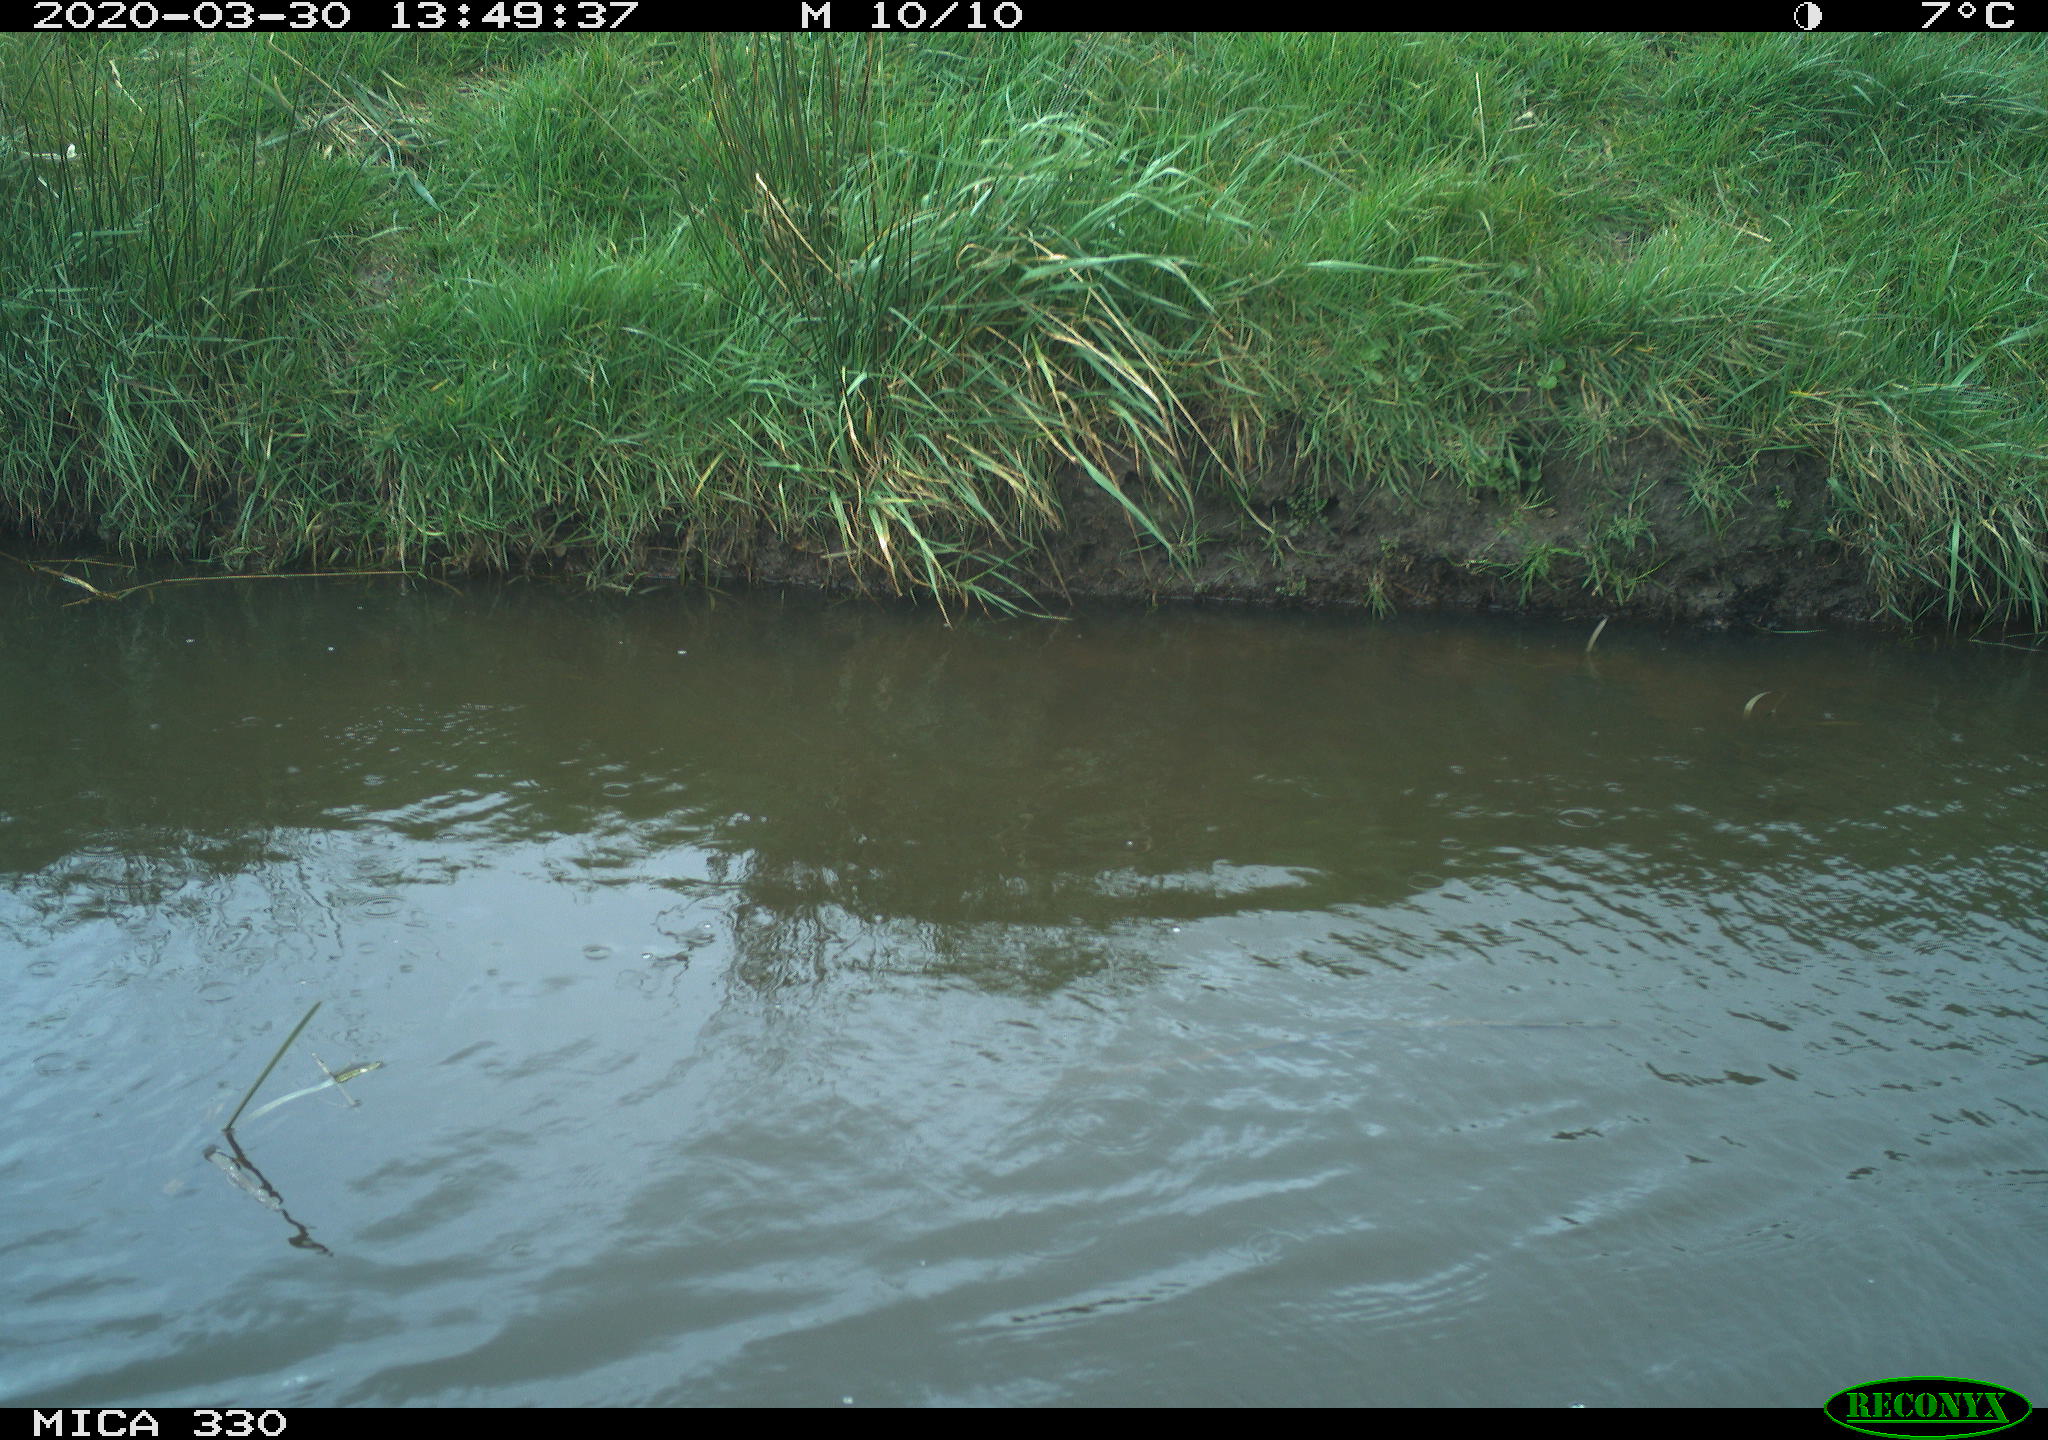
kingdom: Animalia
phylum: Chordata
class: Aves
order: Anseriformes
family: Anatidae
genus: Anas
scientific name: Anas platyrhynchos
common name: Mallard
